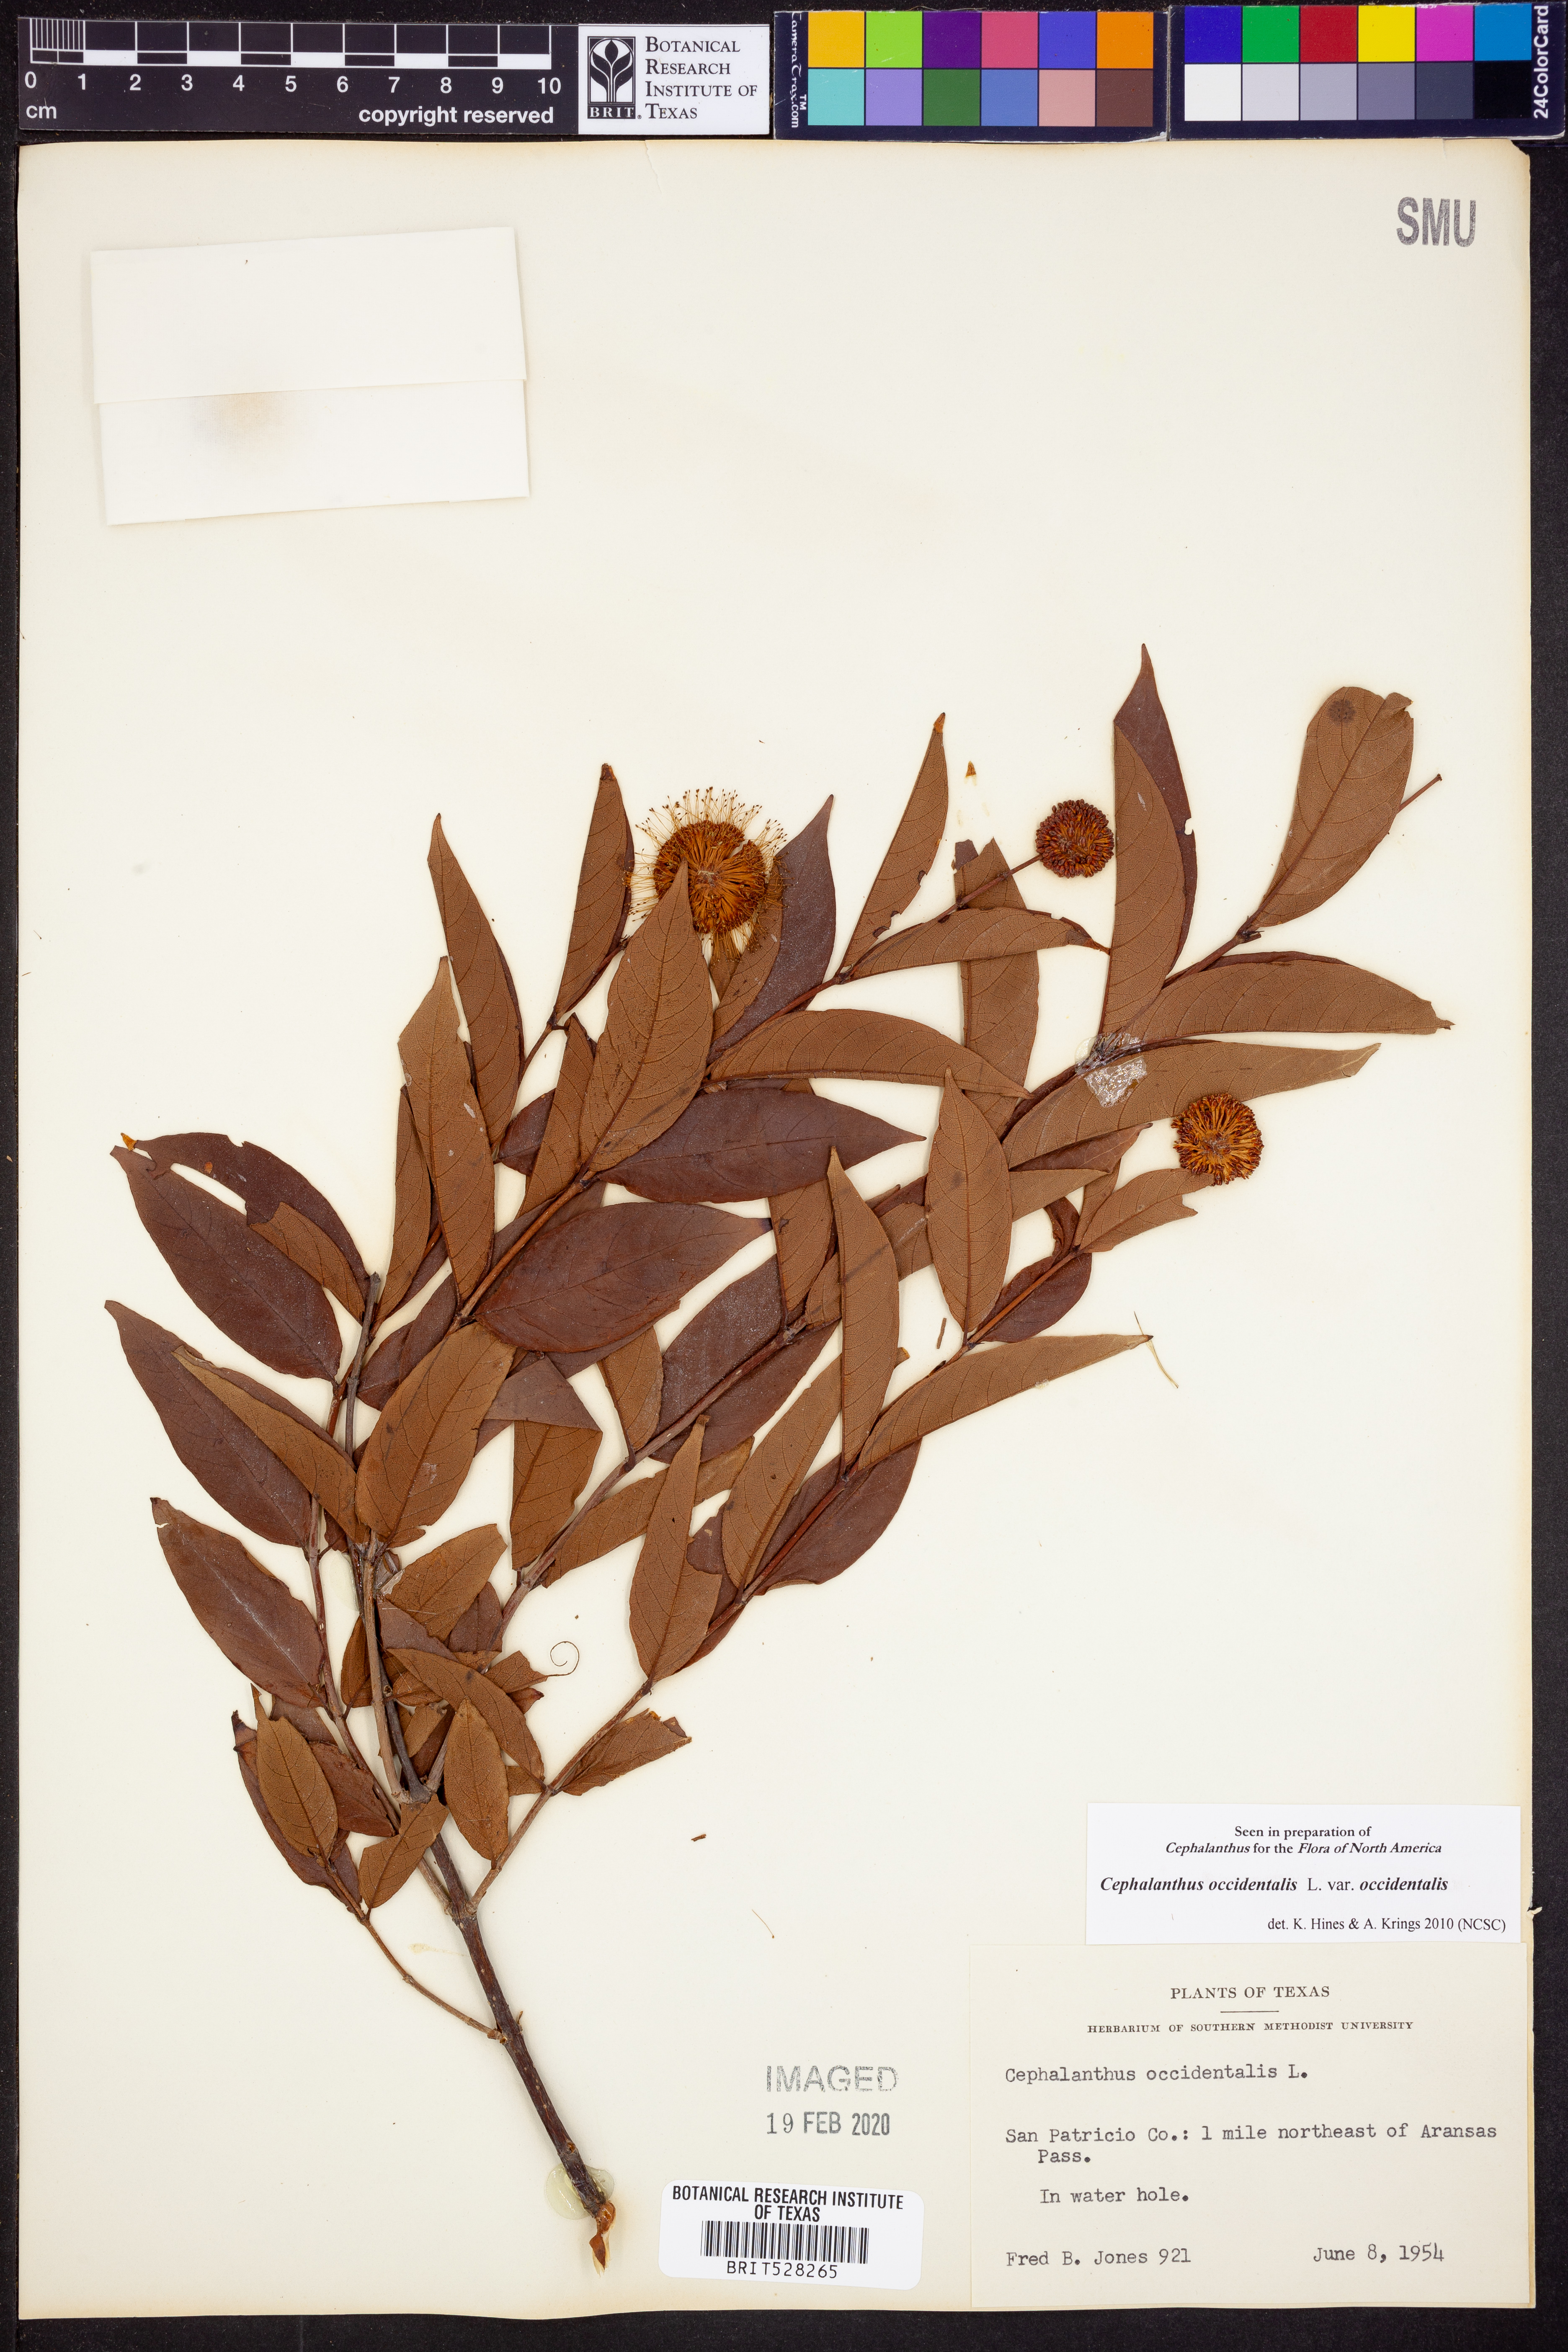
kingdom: Plantae
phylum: Tracheophyta
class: Magnoliopsida
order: Gentianales
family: Rubiaceae
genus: Cephalanthus
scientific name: Cephalanthus occidentalis
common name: Button-willow
